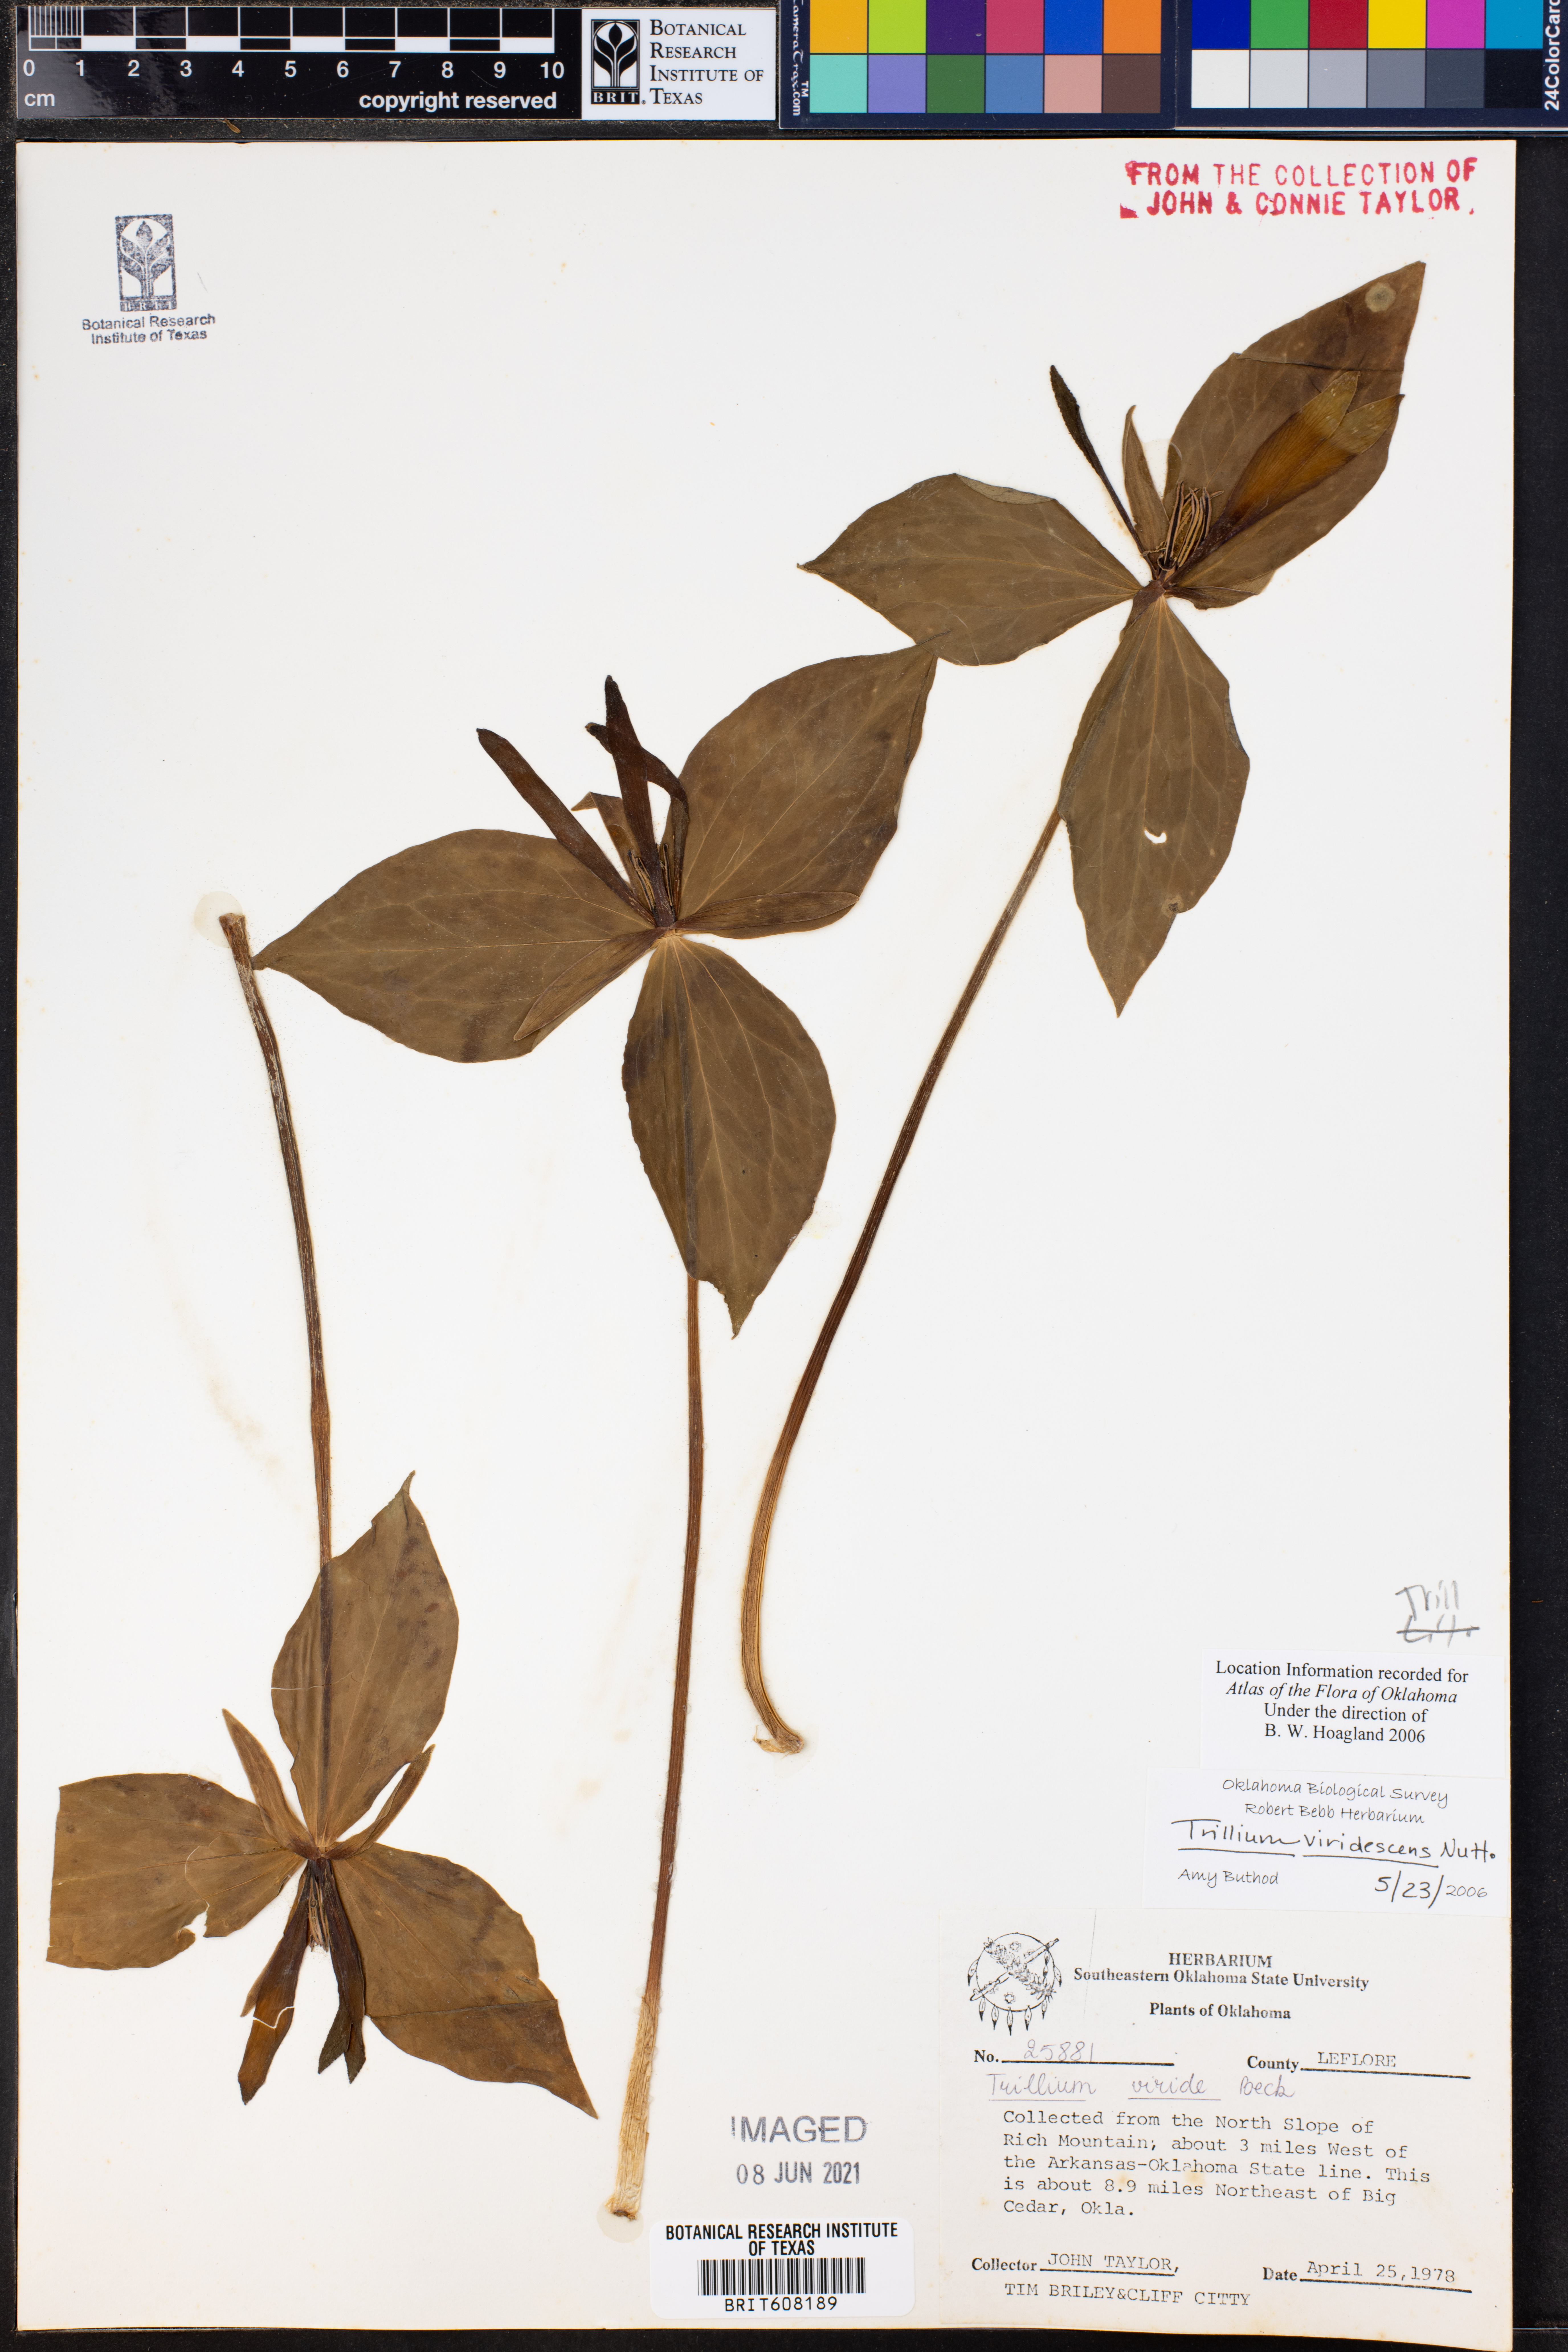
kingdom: Plantae
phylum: Tracheophyta
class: Liliopsida
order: Liliales
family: Melanthiaceae
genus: Trillium
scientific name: Trillium viridescens
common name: Ozark green trillium
